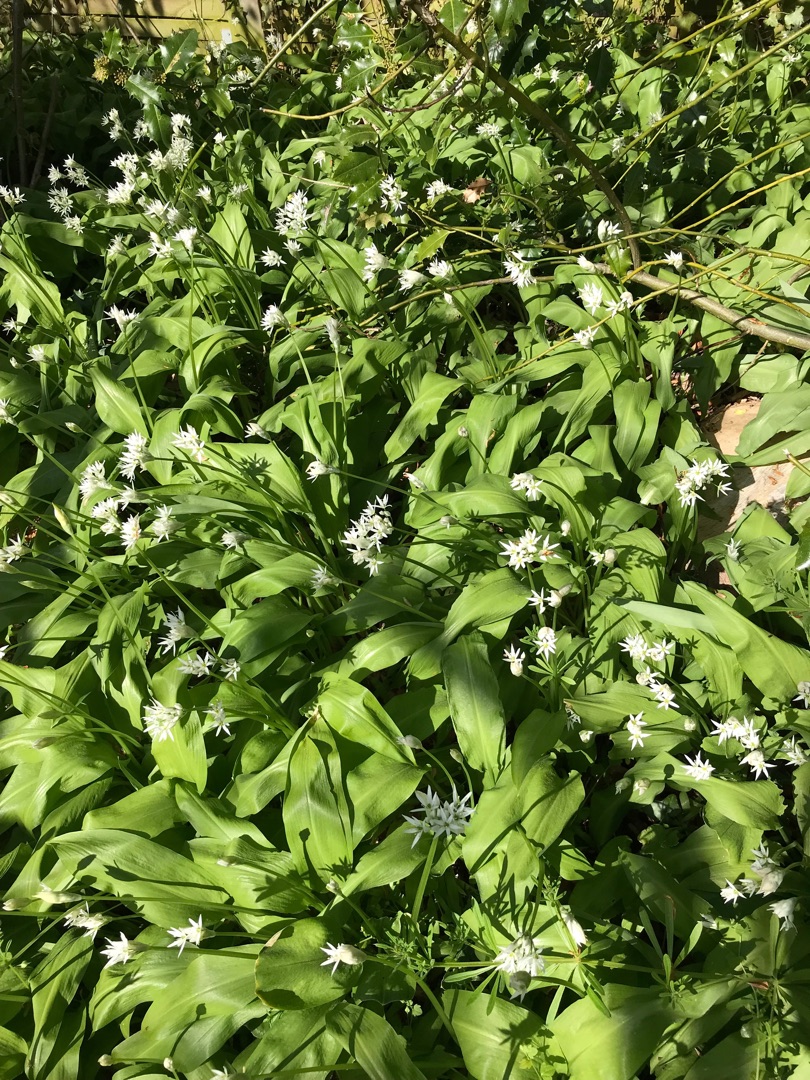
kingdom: Plantae
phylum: Tracheophyta
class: Liliopsida
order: Asparagales
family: Amaryllidaceae
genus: Allium
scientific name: Allium ursinum
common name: Rams-løg
